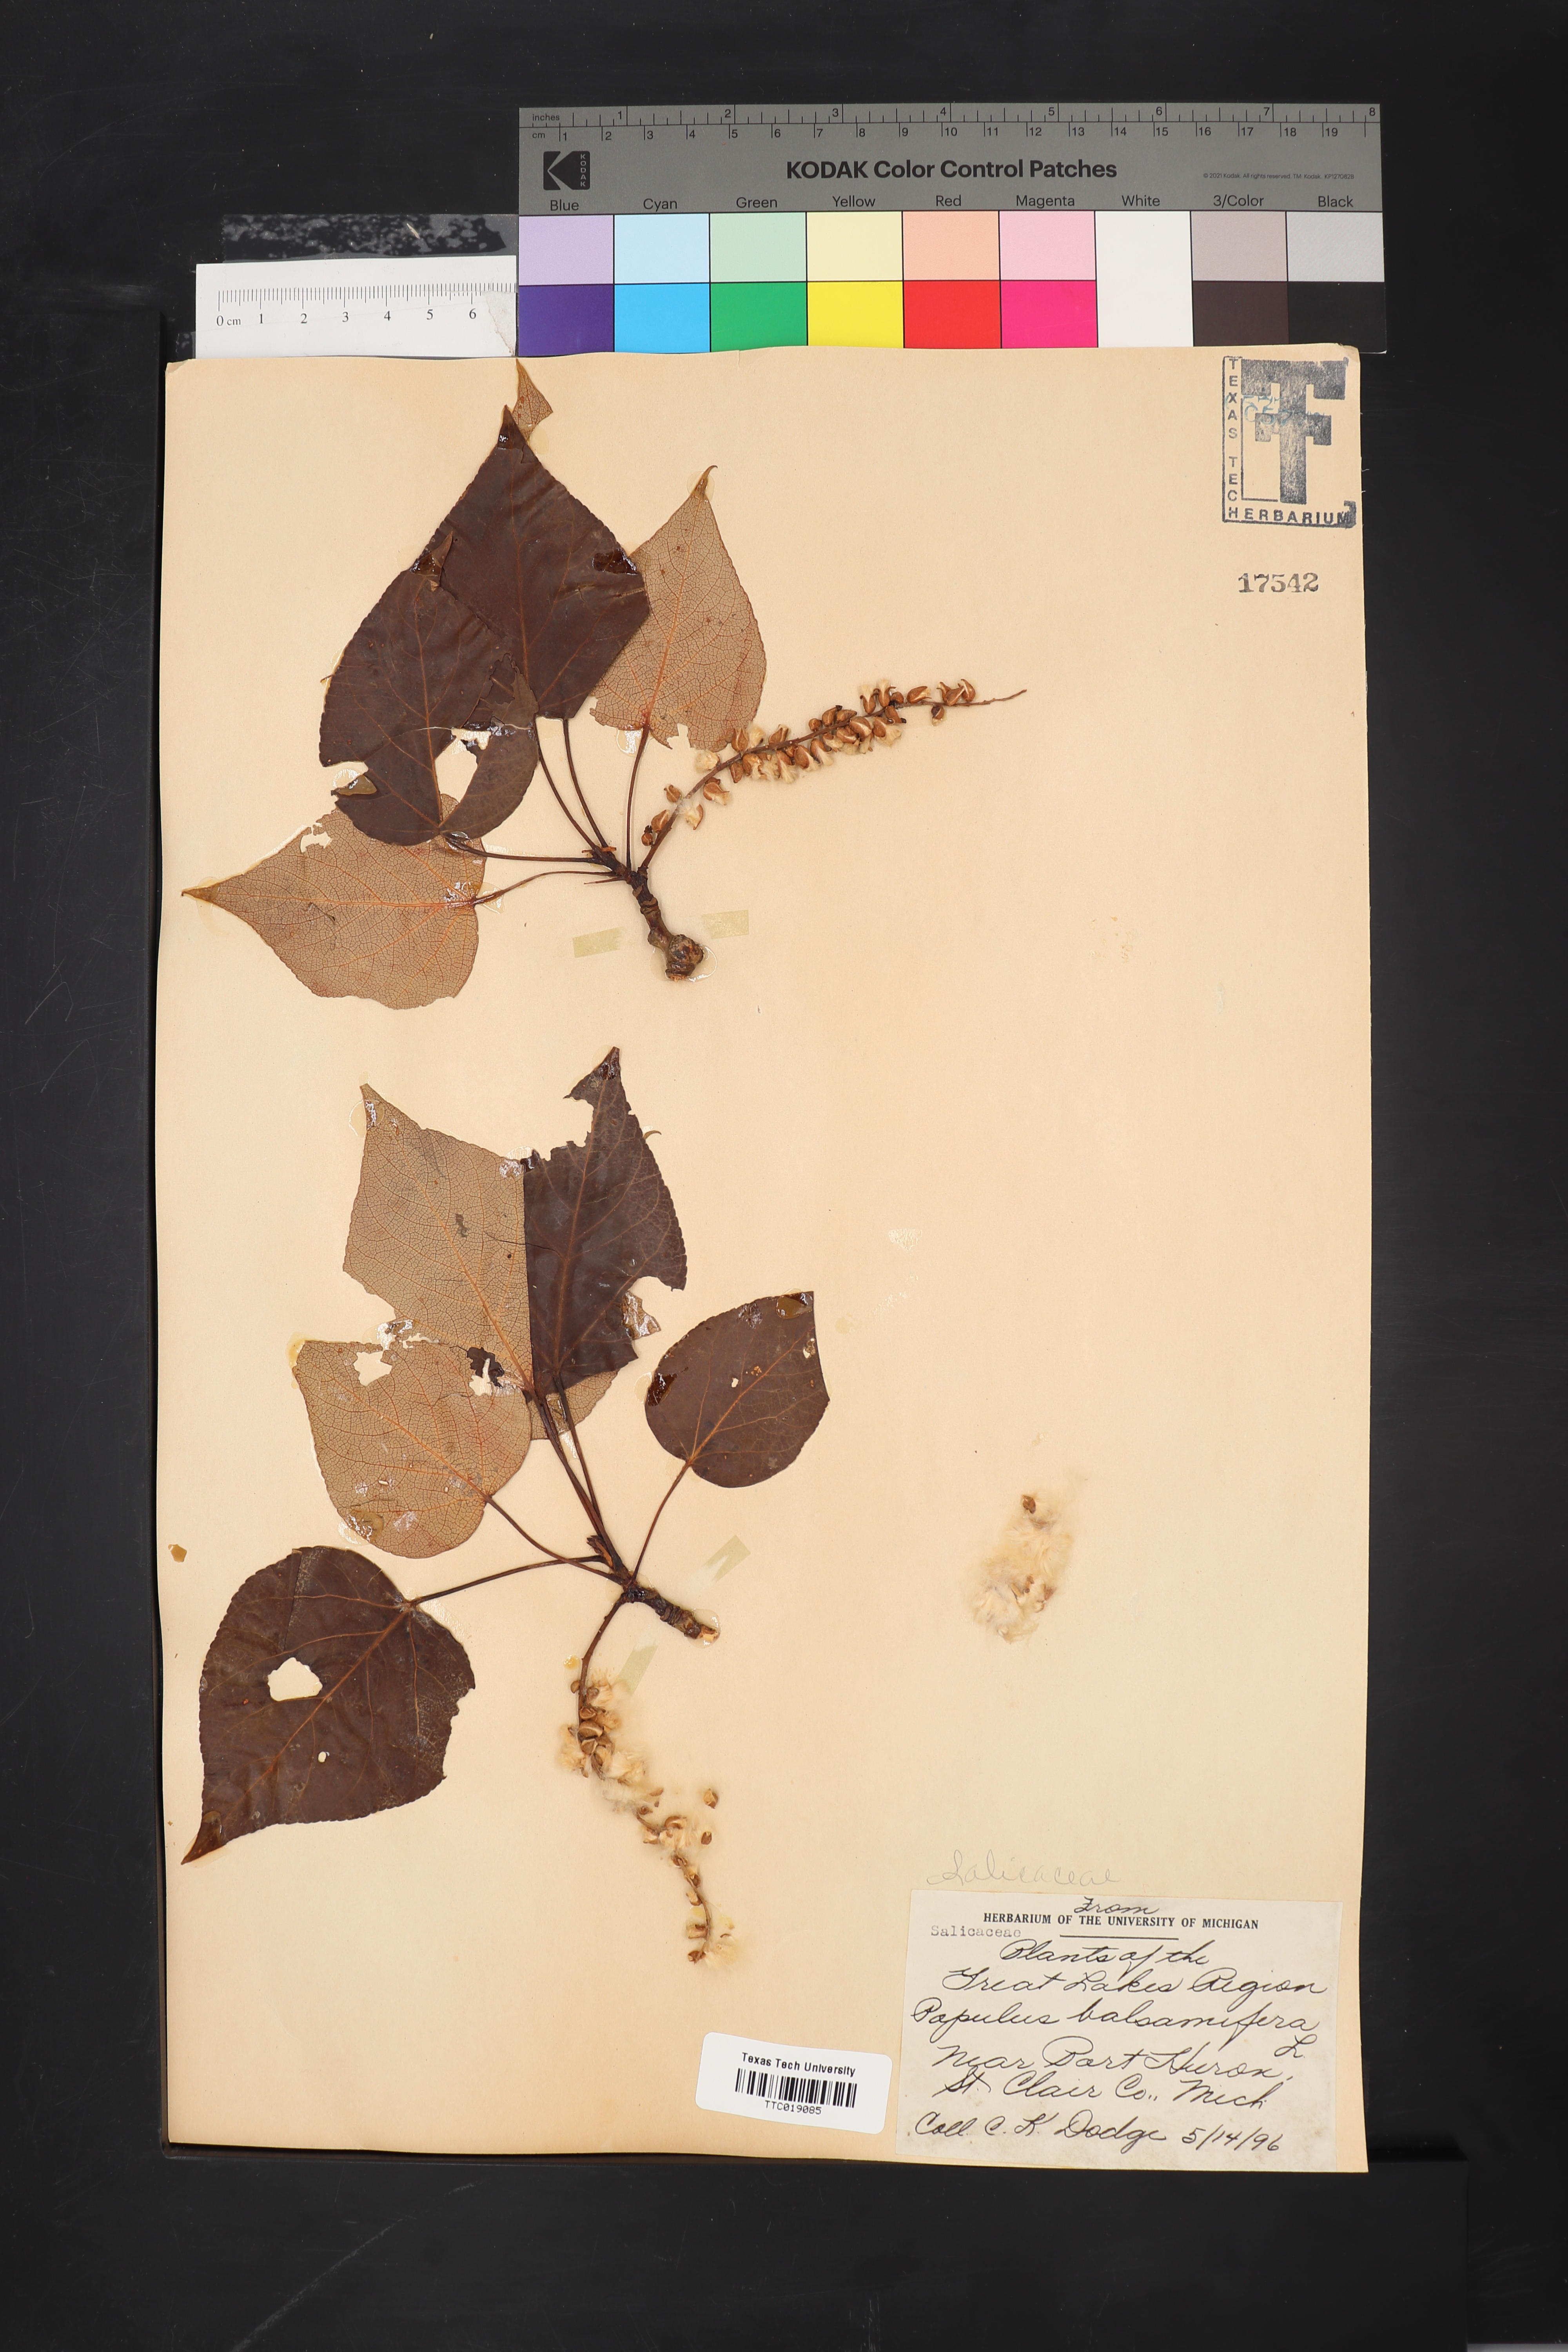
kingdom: Plantae
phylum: Tracheophyta
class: Magnoliopsida
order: Malpighiales
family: Salicaceae
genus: Populus
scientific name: Populus balsamifera
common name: Balsam poplar
